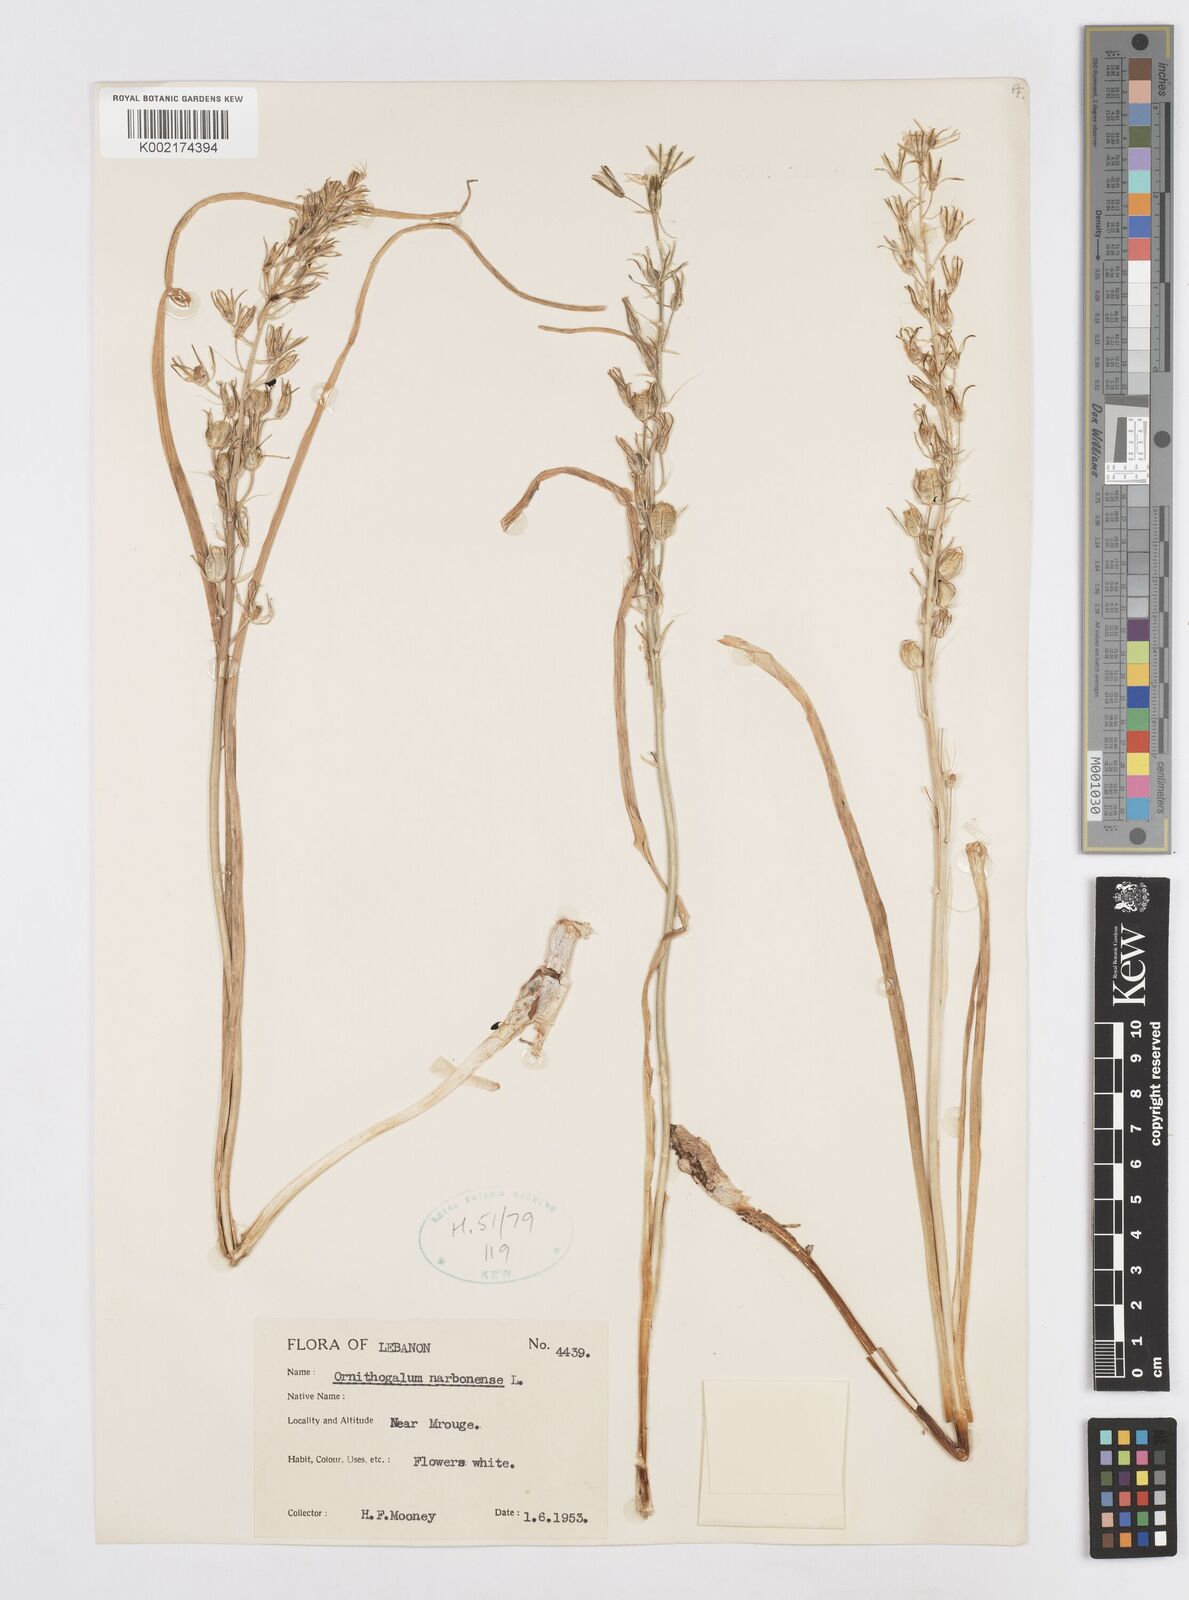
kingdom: Plantae
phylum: Tracheophyta
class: Liliopsida
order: Asparagales
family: Asparagaceae
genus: Ornithogalum
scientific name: Ornithogalum narbonense
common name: Bath-asparagus
